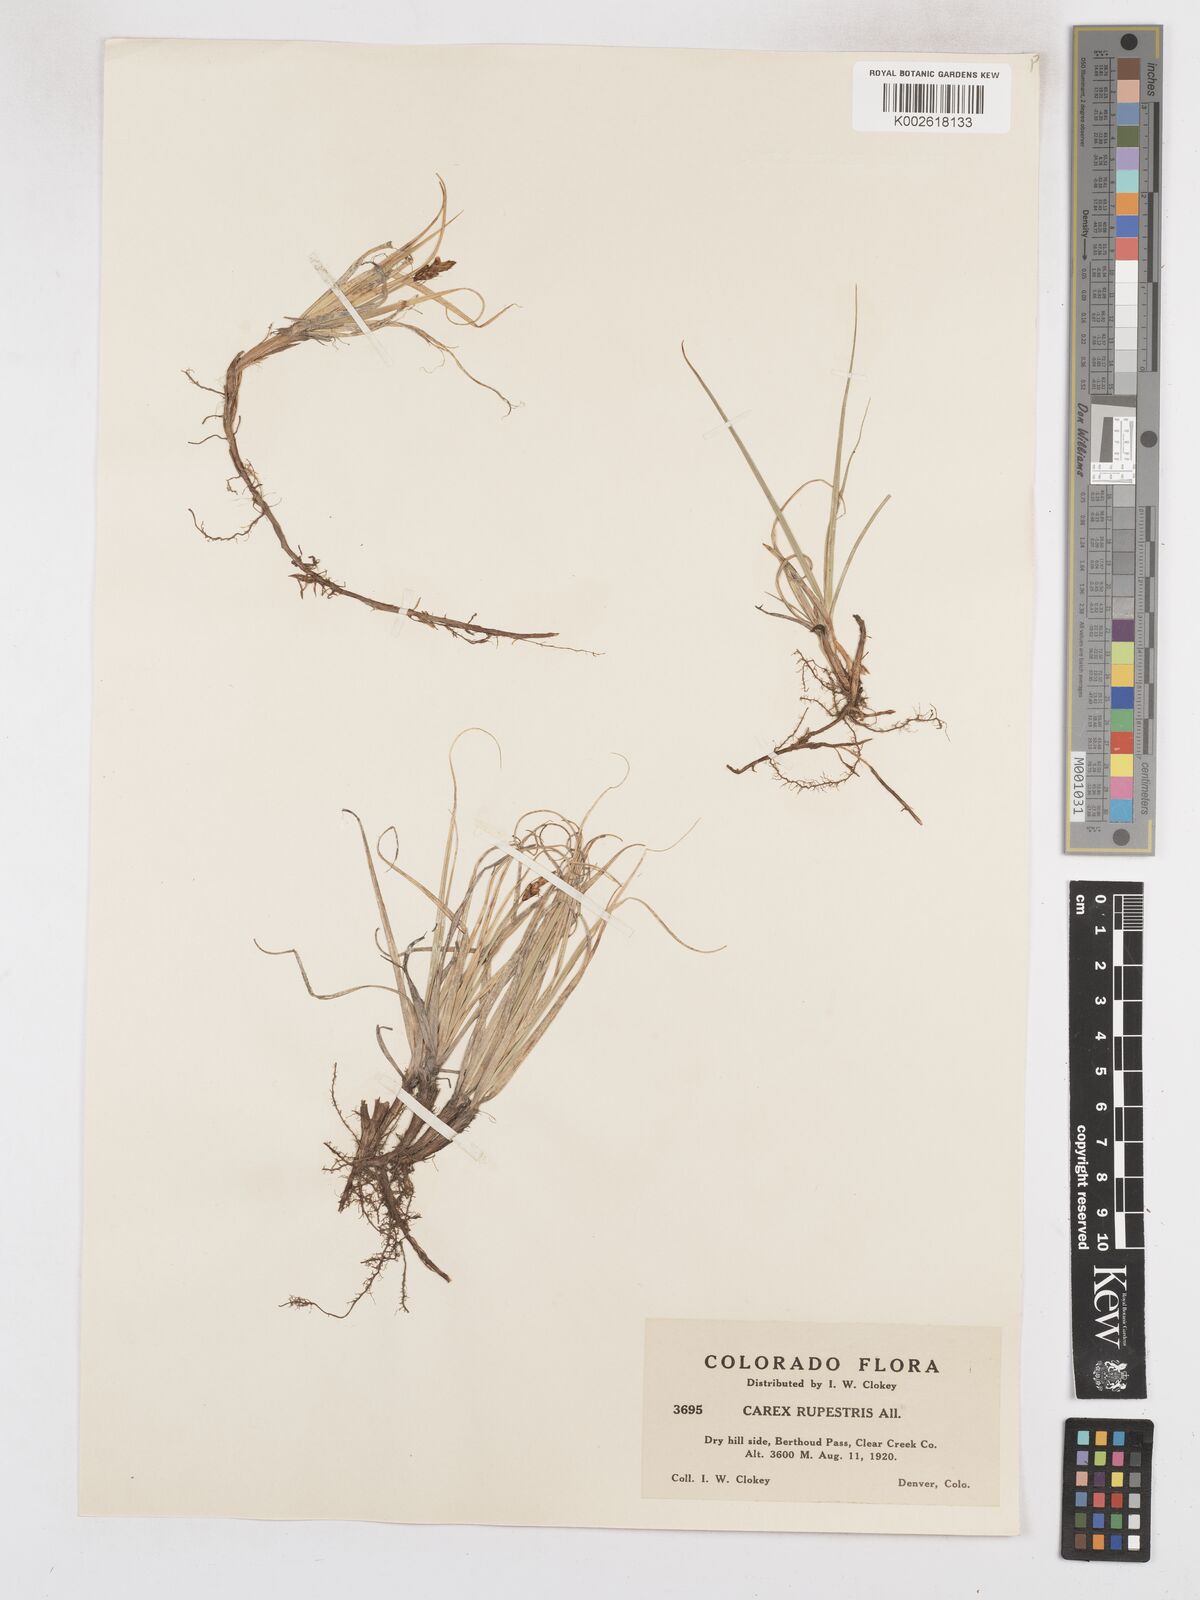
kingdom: Plantae
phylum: Tracheophyta
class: Liliopsida
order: Poales
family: Cyperaceae
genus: Carex
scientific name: Carex rupestris
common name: Rock sedge
